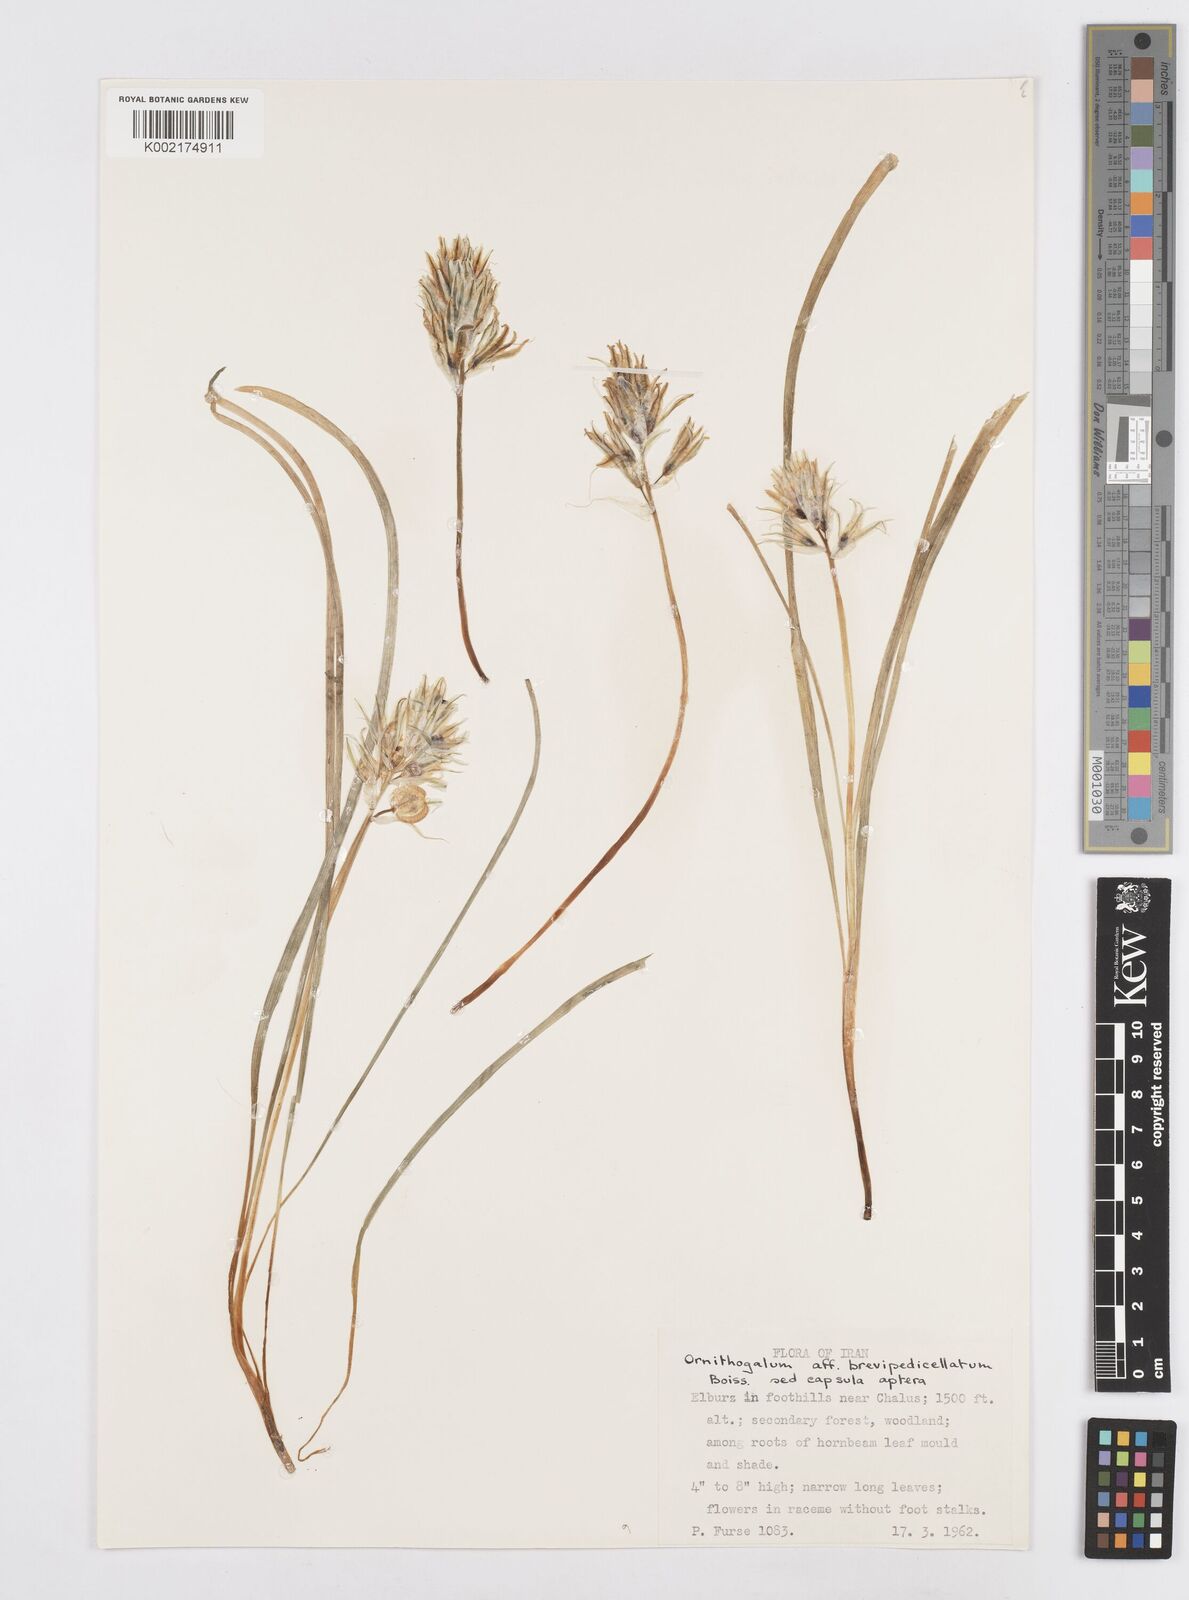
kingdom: Plantae
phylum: Tracheophyta
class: Liliopsida
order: Asparagales
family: Asparagaceae
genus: Ornithogalum
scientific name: Ornithogalum brevipedicellatum
